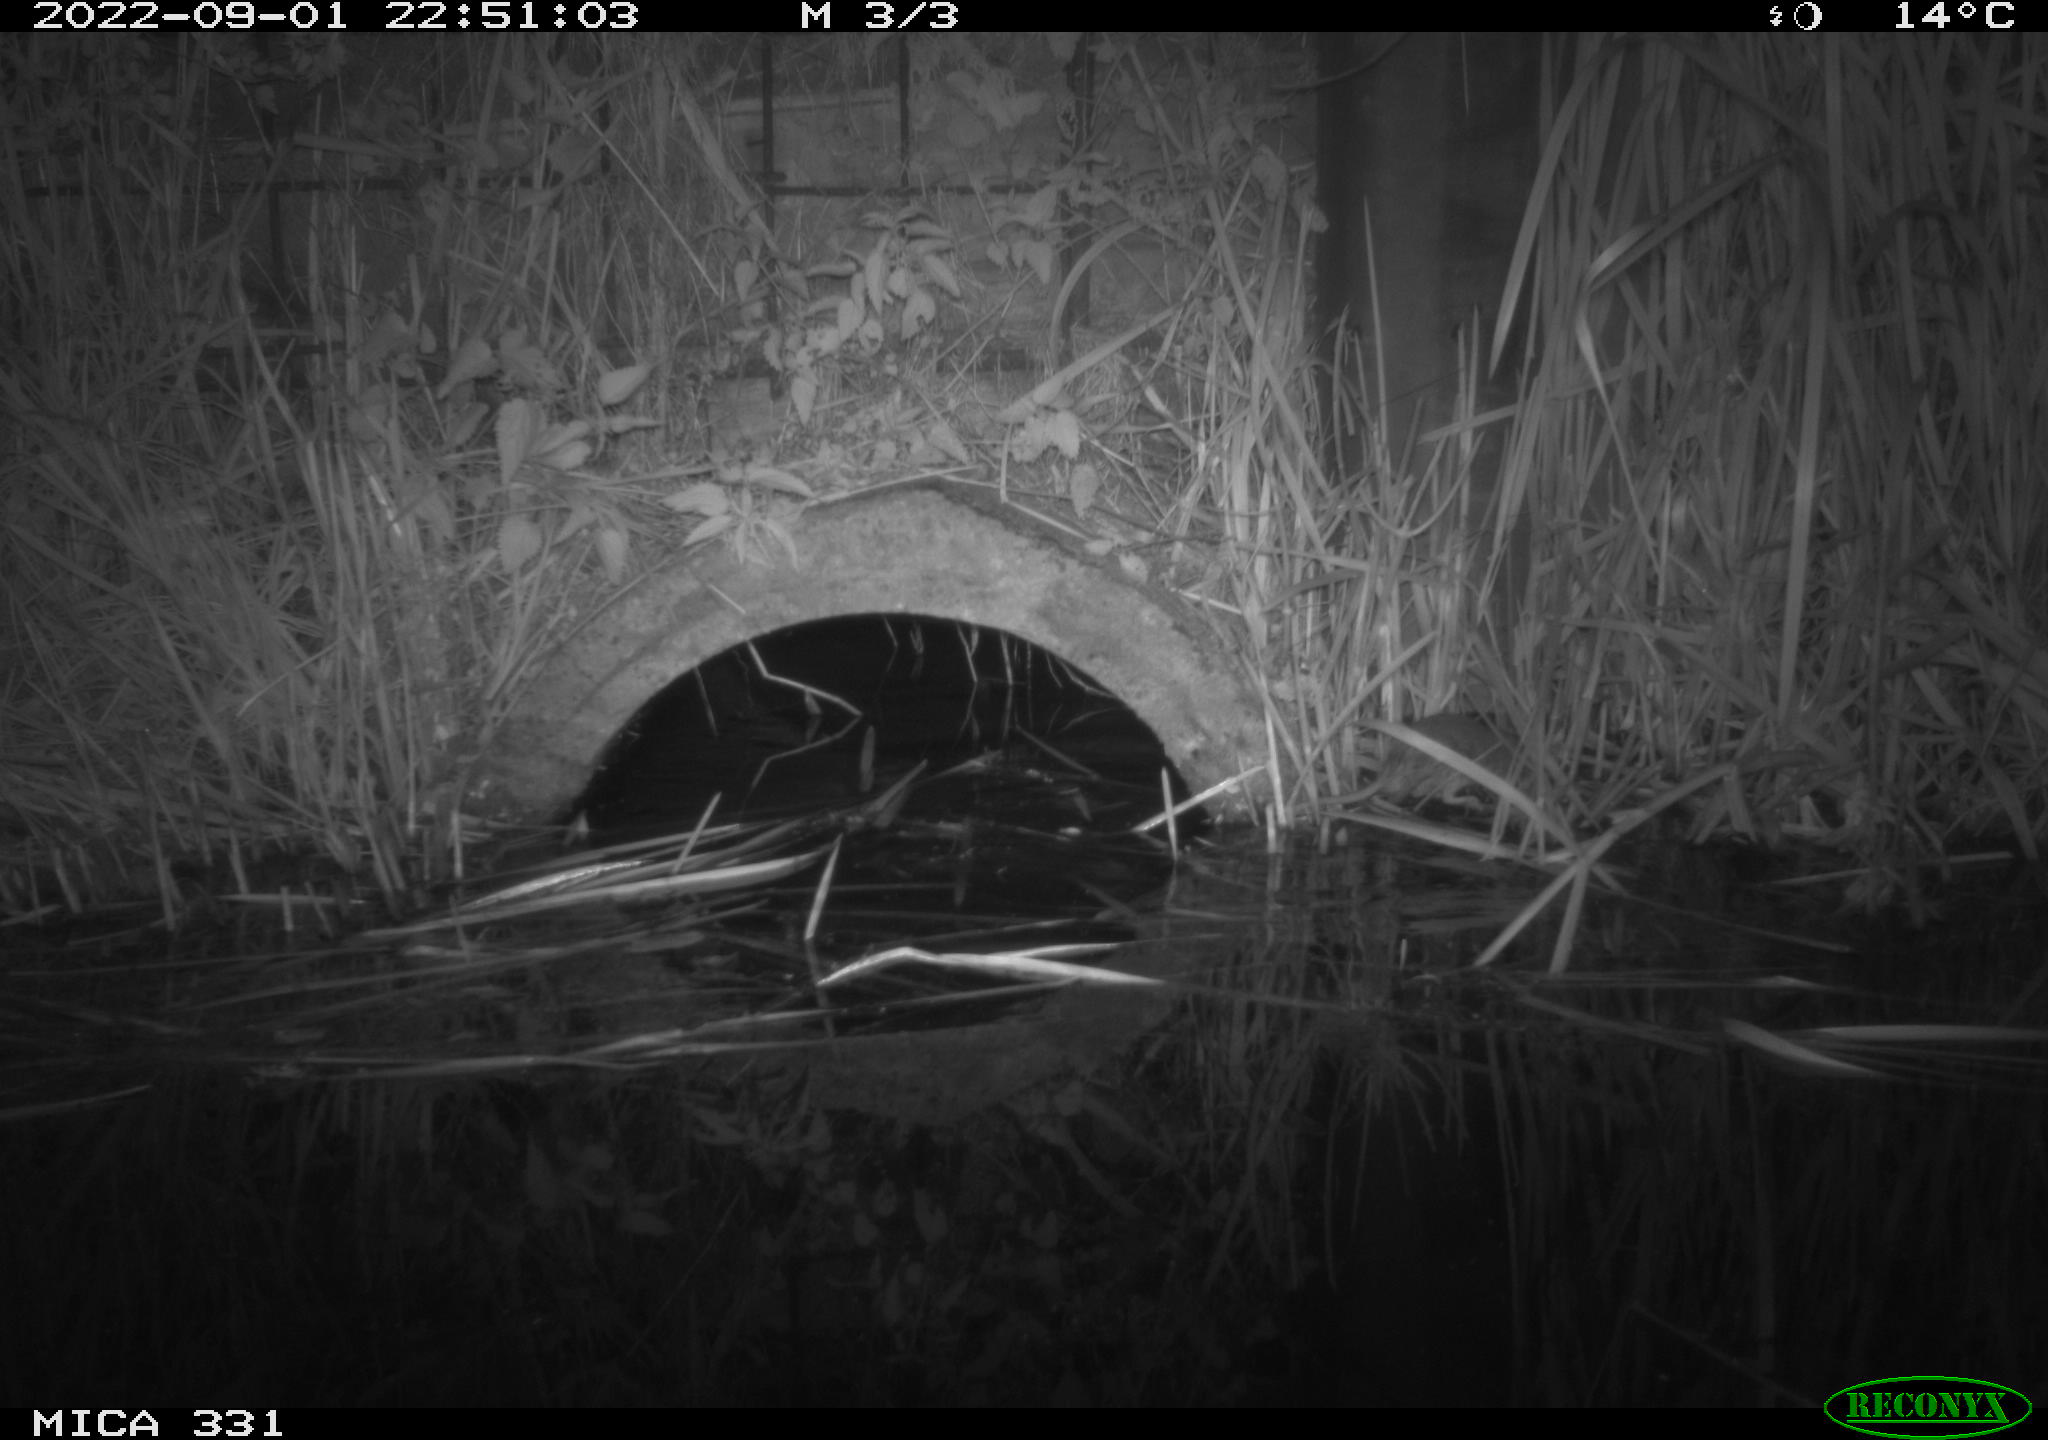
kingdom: Animalia
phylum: Chordata
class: Mammalia
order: Rodentia
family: Muridae
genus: Rattus
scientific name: Rattus norvegicus
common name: Brown rat
